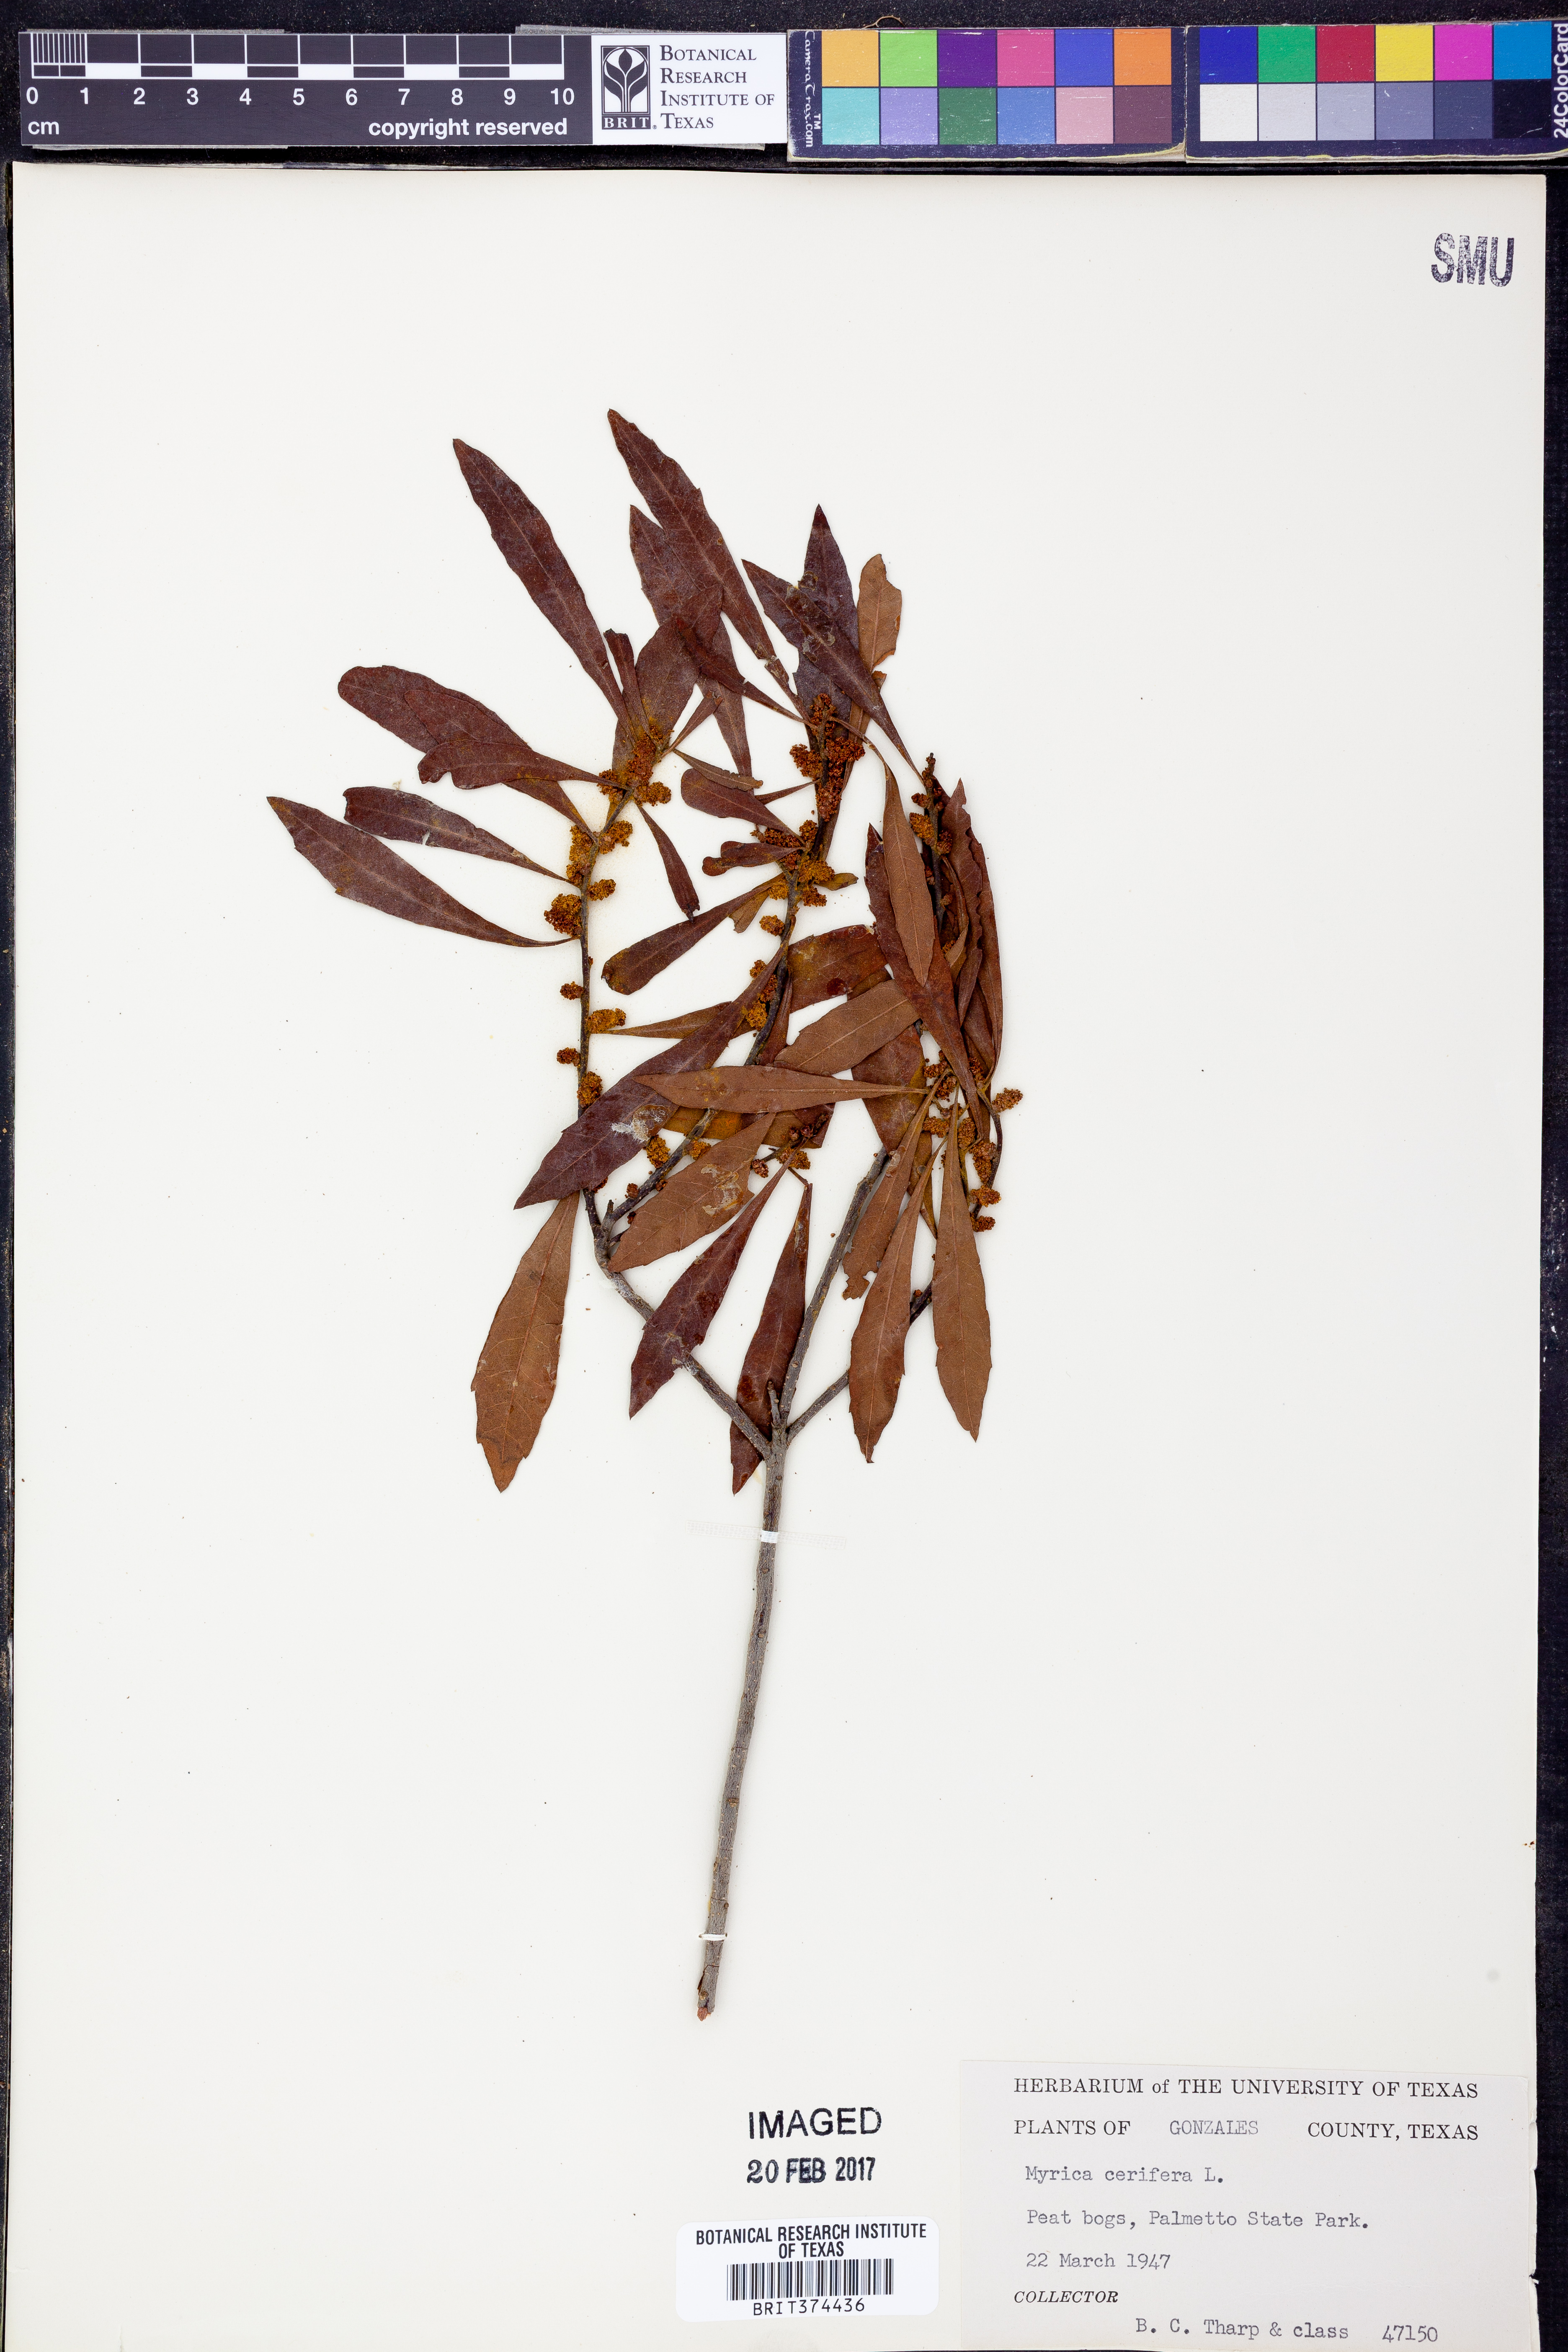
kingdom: Plantae
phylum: Tracheophyta
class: Magnoliopsida
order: Fagales
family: Myricaceae
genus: Morella
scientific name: Morella cerifera
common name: Wax myrtle
